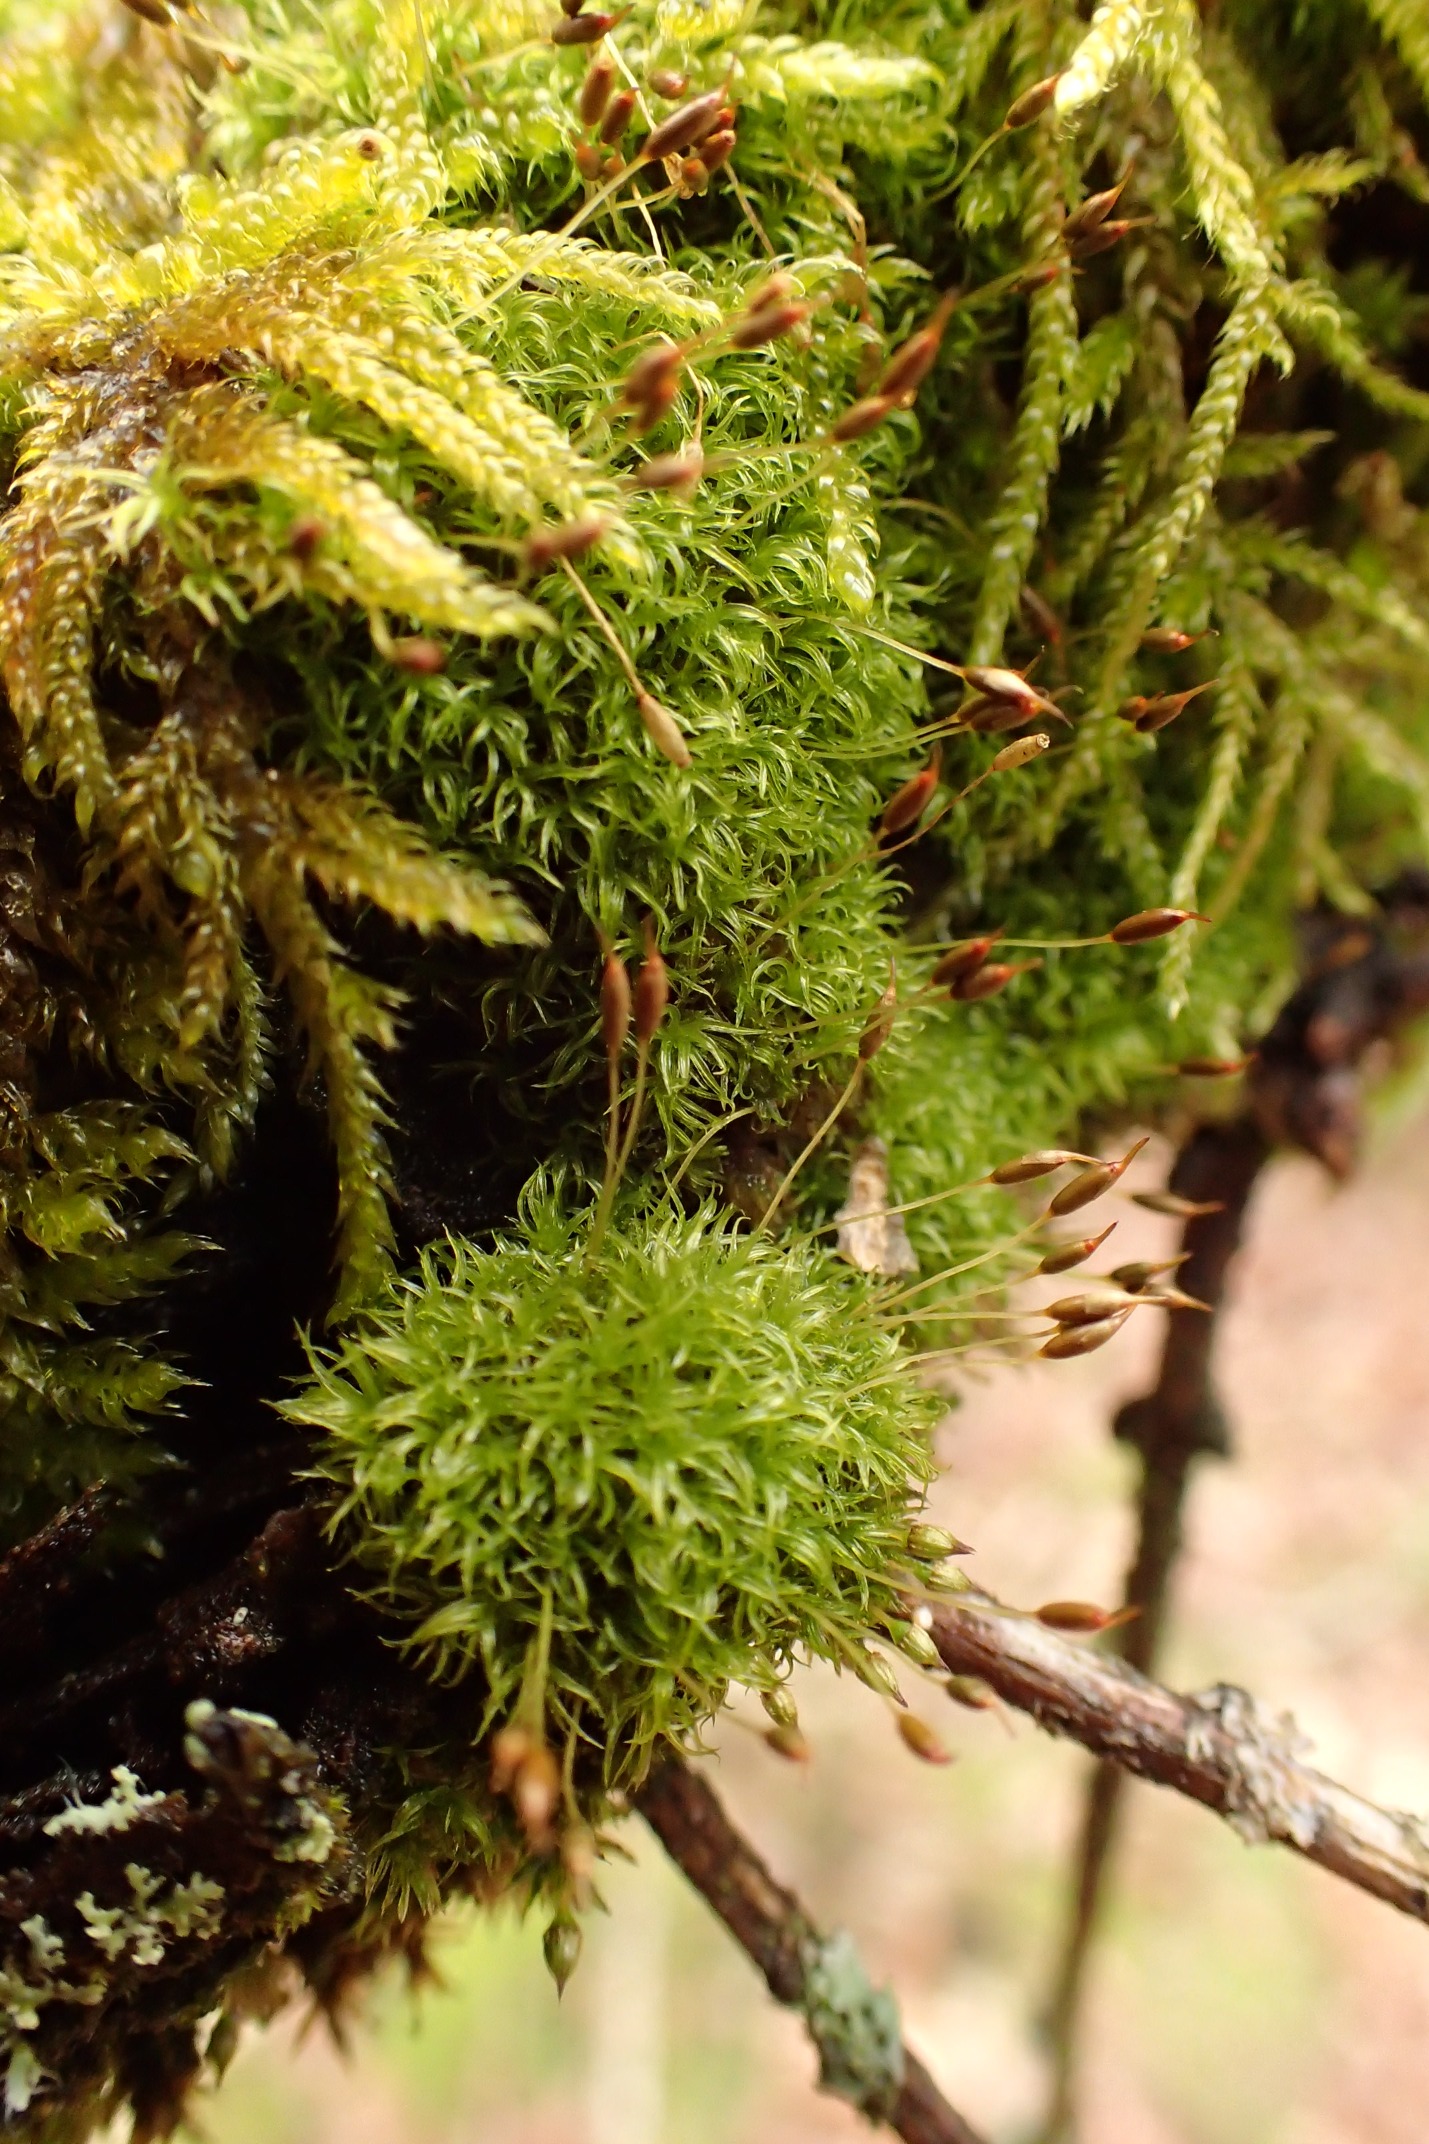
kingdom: Plantae
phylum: Bryophyta
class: Bryopsida
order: Dicranales
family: Rhabdoweisiaceae
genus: Dicranoweisia
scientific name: Dicranoweisia cirrata
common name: Almindelig krøltuemos
